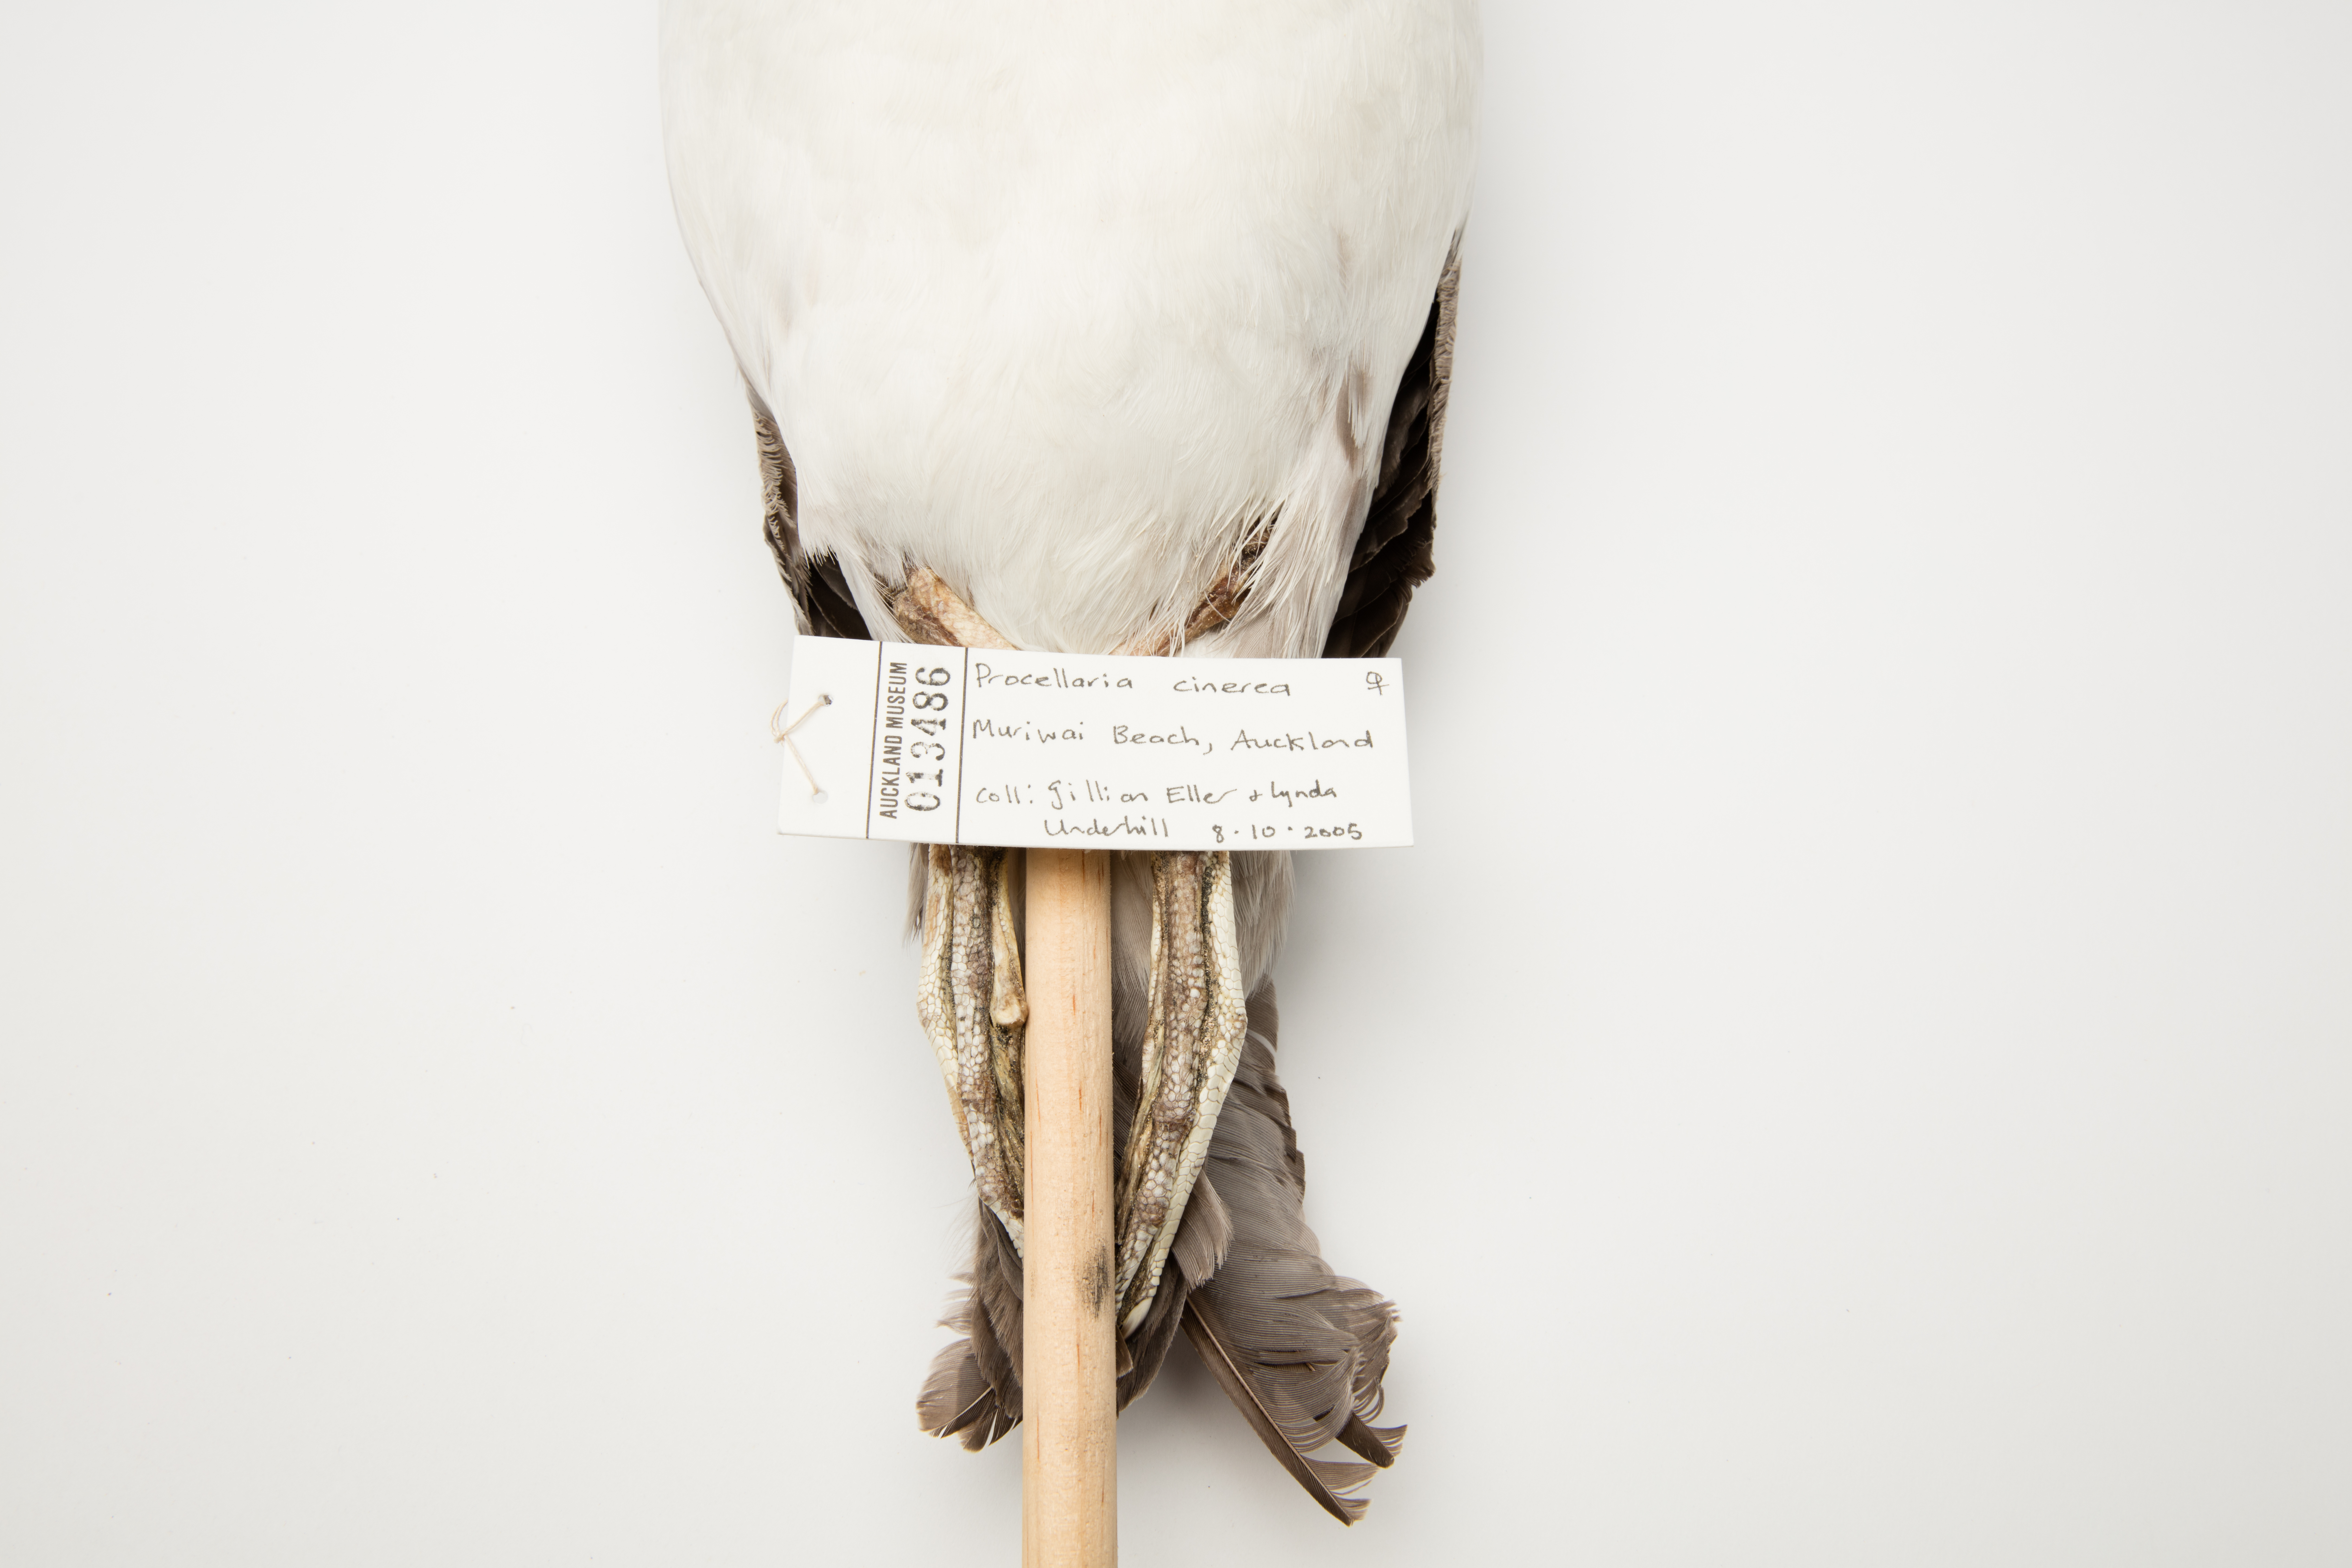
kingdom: Animalia
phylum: Chordata
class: Aves
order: Procellariiformes
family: Procellariidae
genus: Procellaria
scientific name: Procellaria cinerea
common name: Grey petrel
